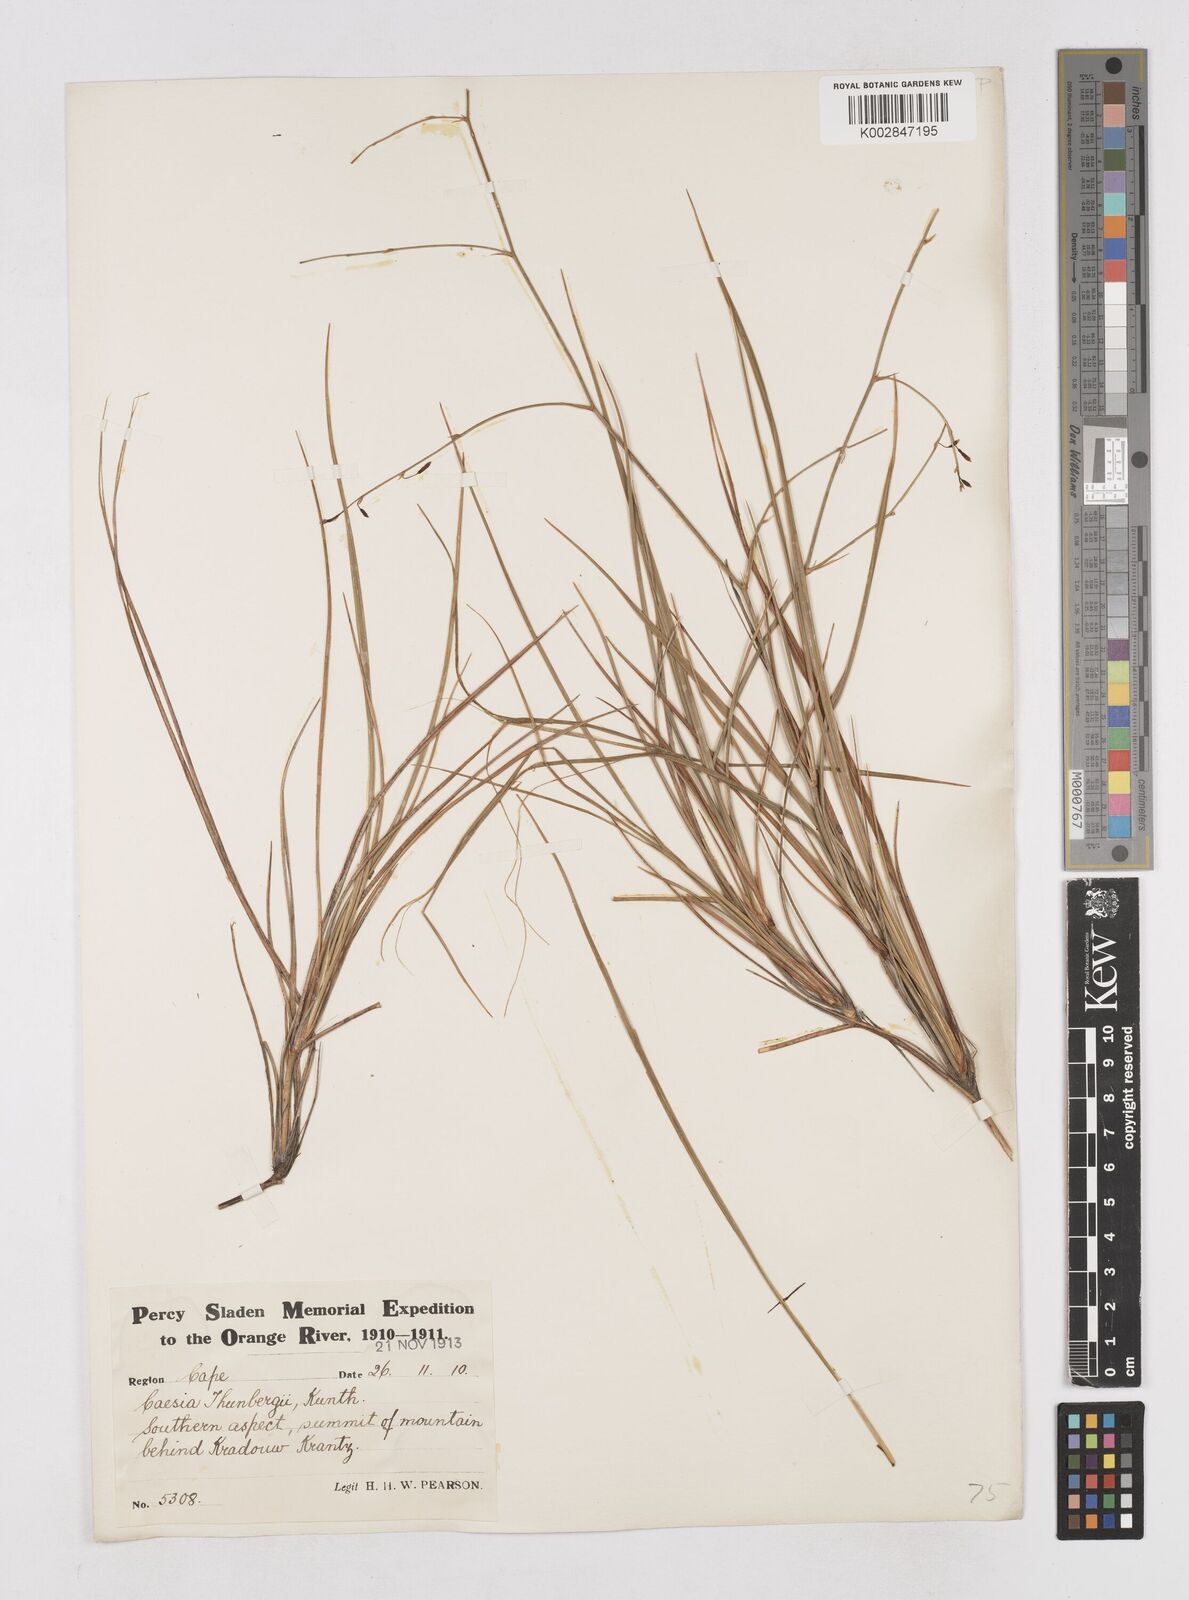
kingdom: Plantae
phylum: Tracheophyta
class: Liliopsida
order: Asparagales
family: Asphodelaceae
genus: Caesia
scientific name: Caesia contorta
